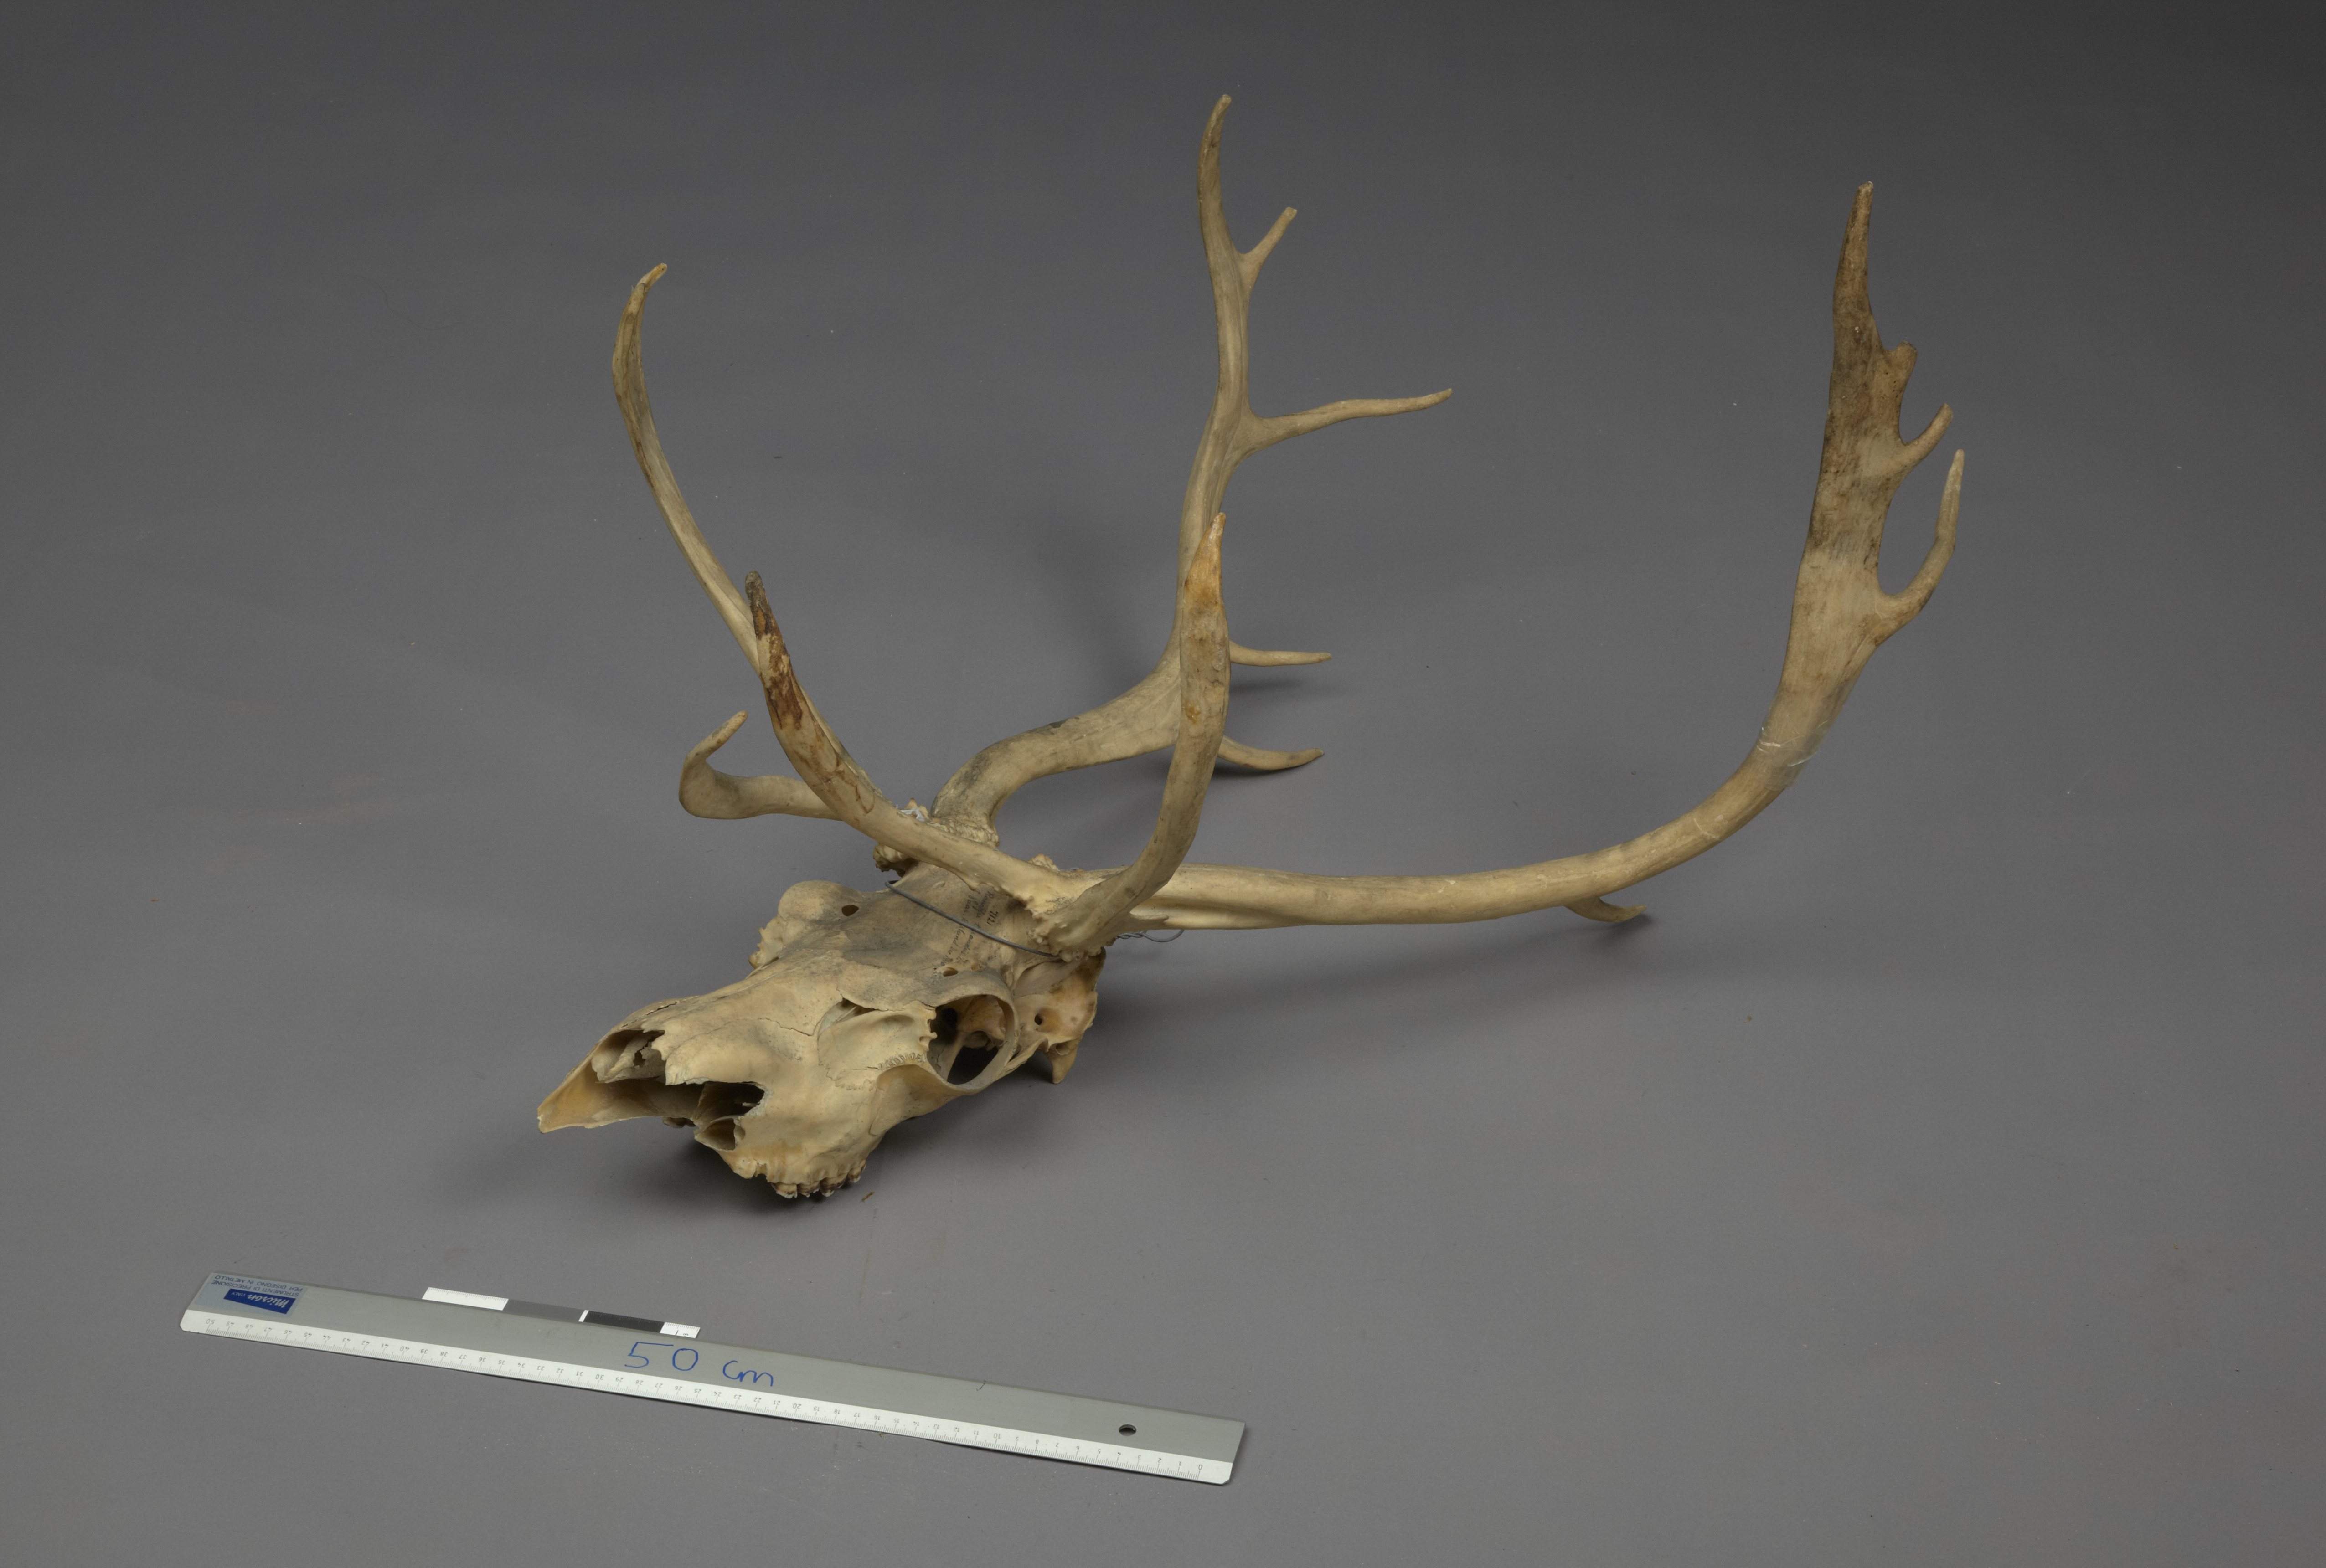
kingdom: Animalia
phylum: Chordata
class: Mammalia
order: Artiodactyla
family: Cervidae
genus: Rangifer
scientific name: Rangifer tarandus
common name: Reindeer
